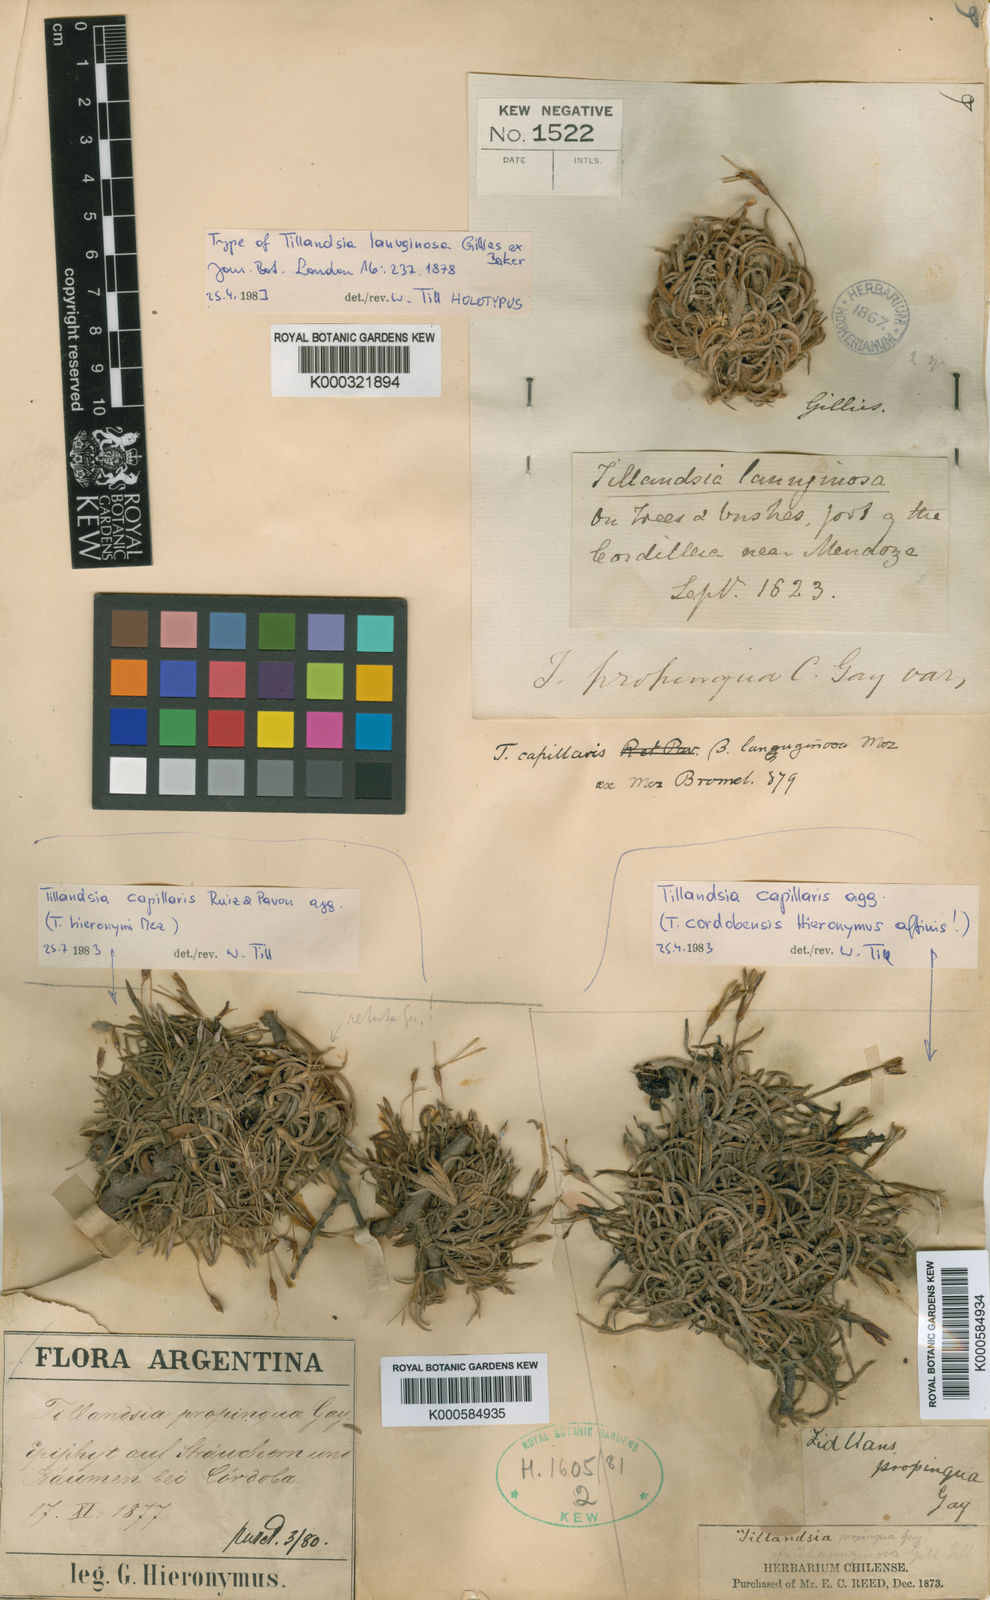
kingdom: Plantae
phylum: Tracheophyta
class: Liliopsida
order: Poales
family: Bromeliaceae
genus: Tillandsia
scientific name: Tillandsia capillaris
